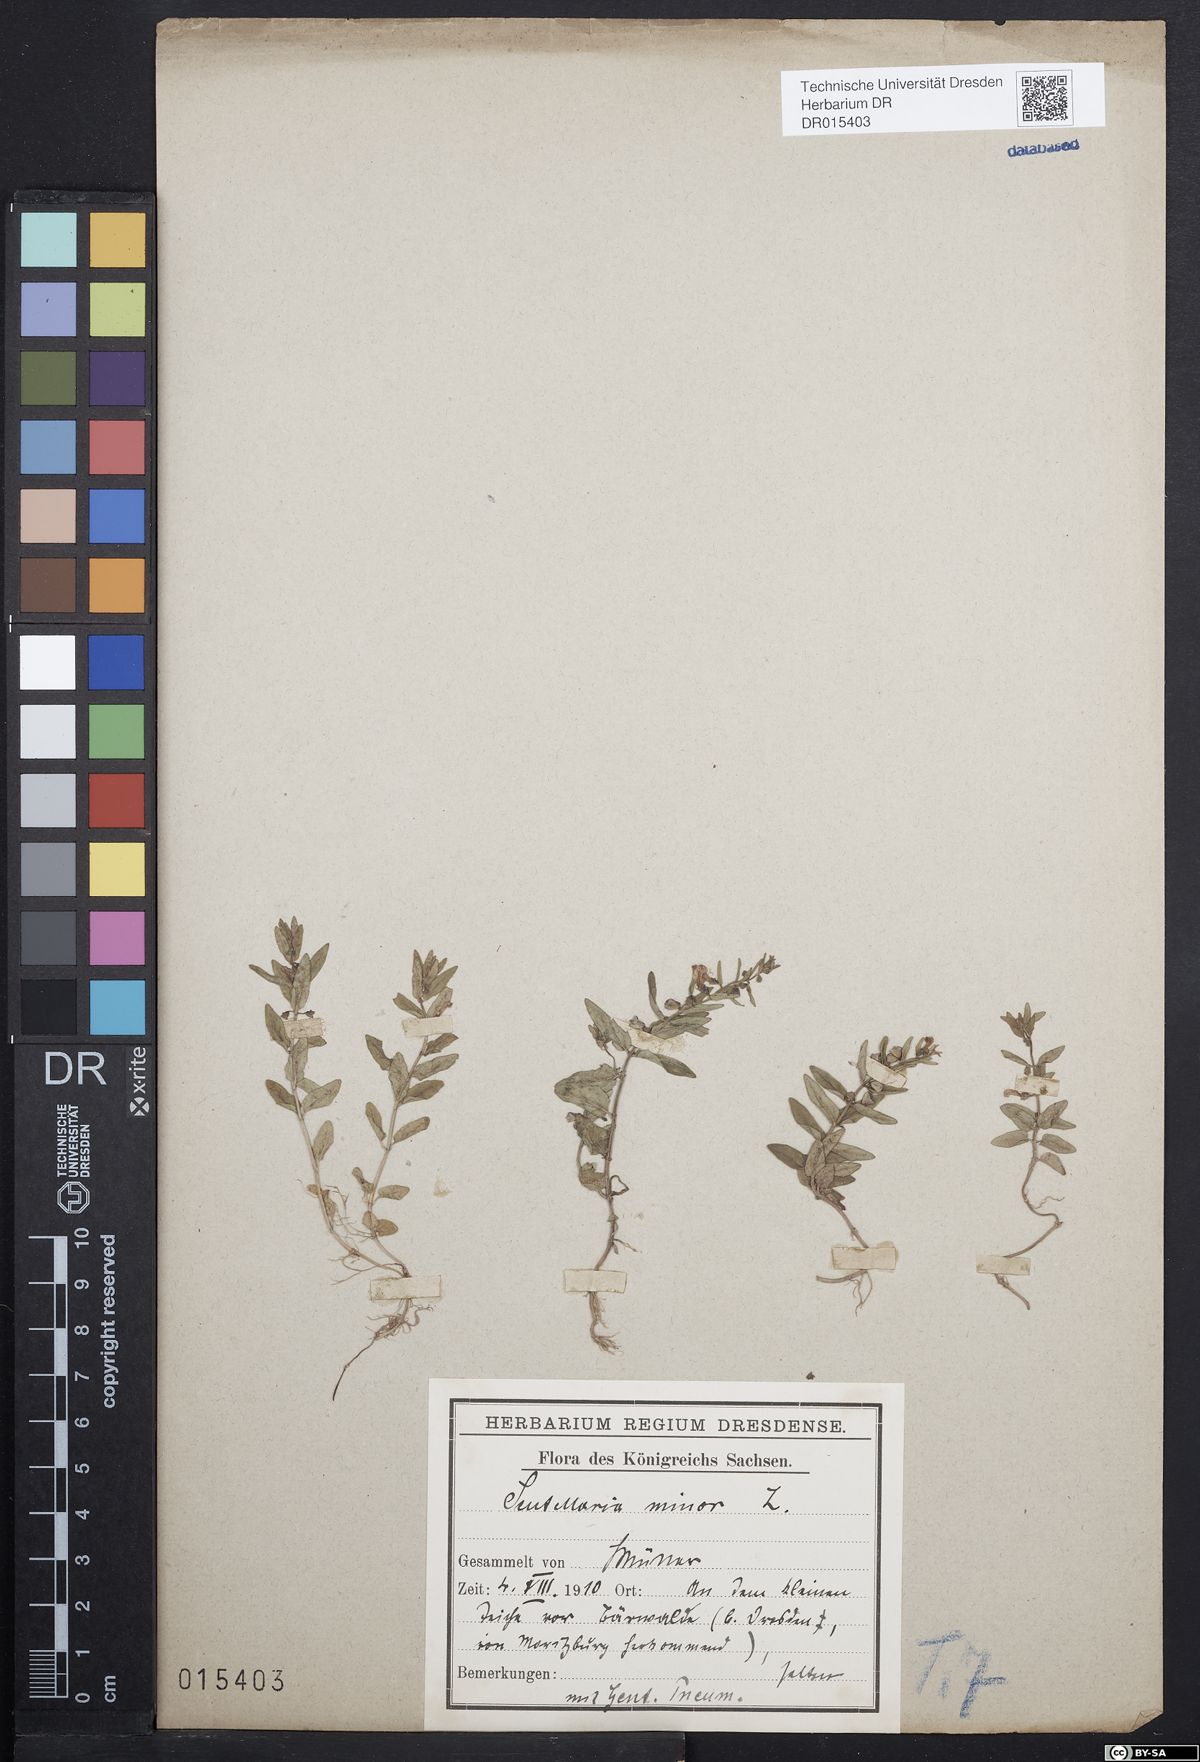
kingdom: Plantae
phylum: Tracheophyta
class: Magnoliopsida
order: Lamiales
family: Lamiaceae
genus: Scutellaria
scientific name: Scutellaria minor
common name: Lesser skullcap
